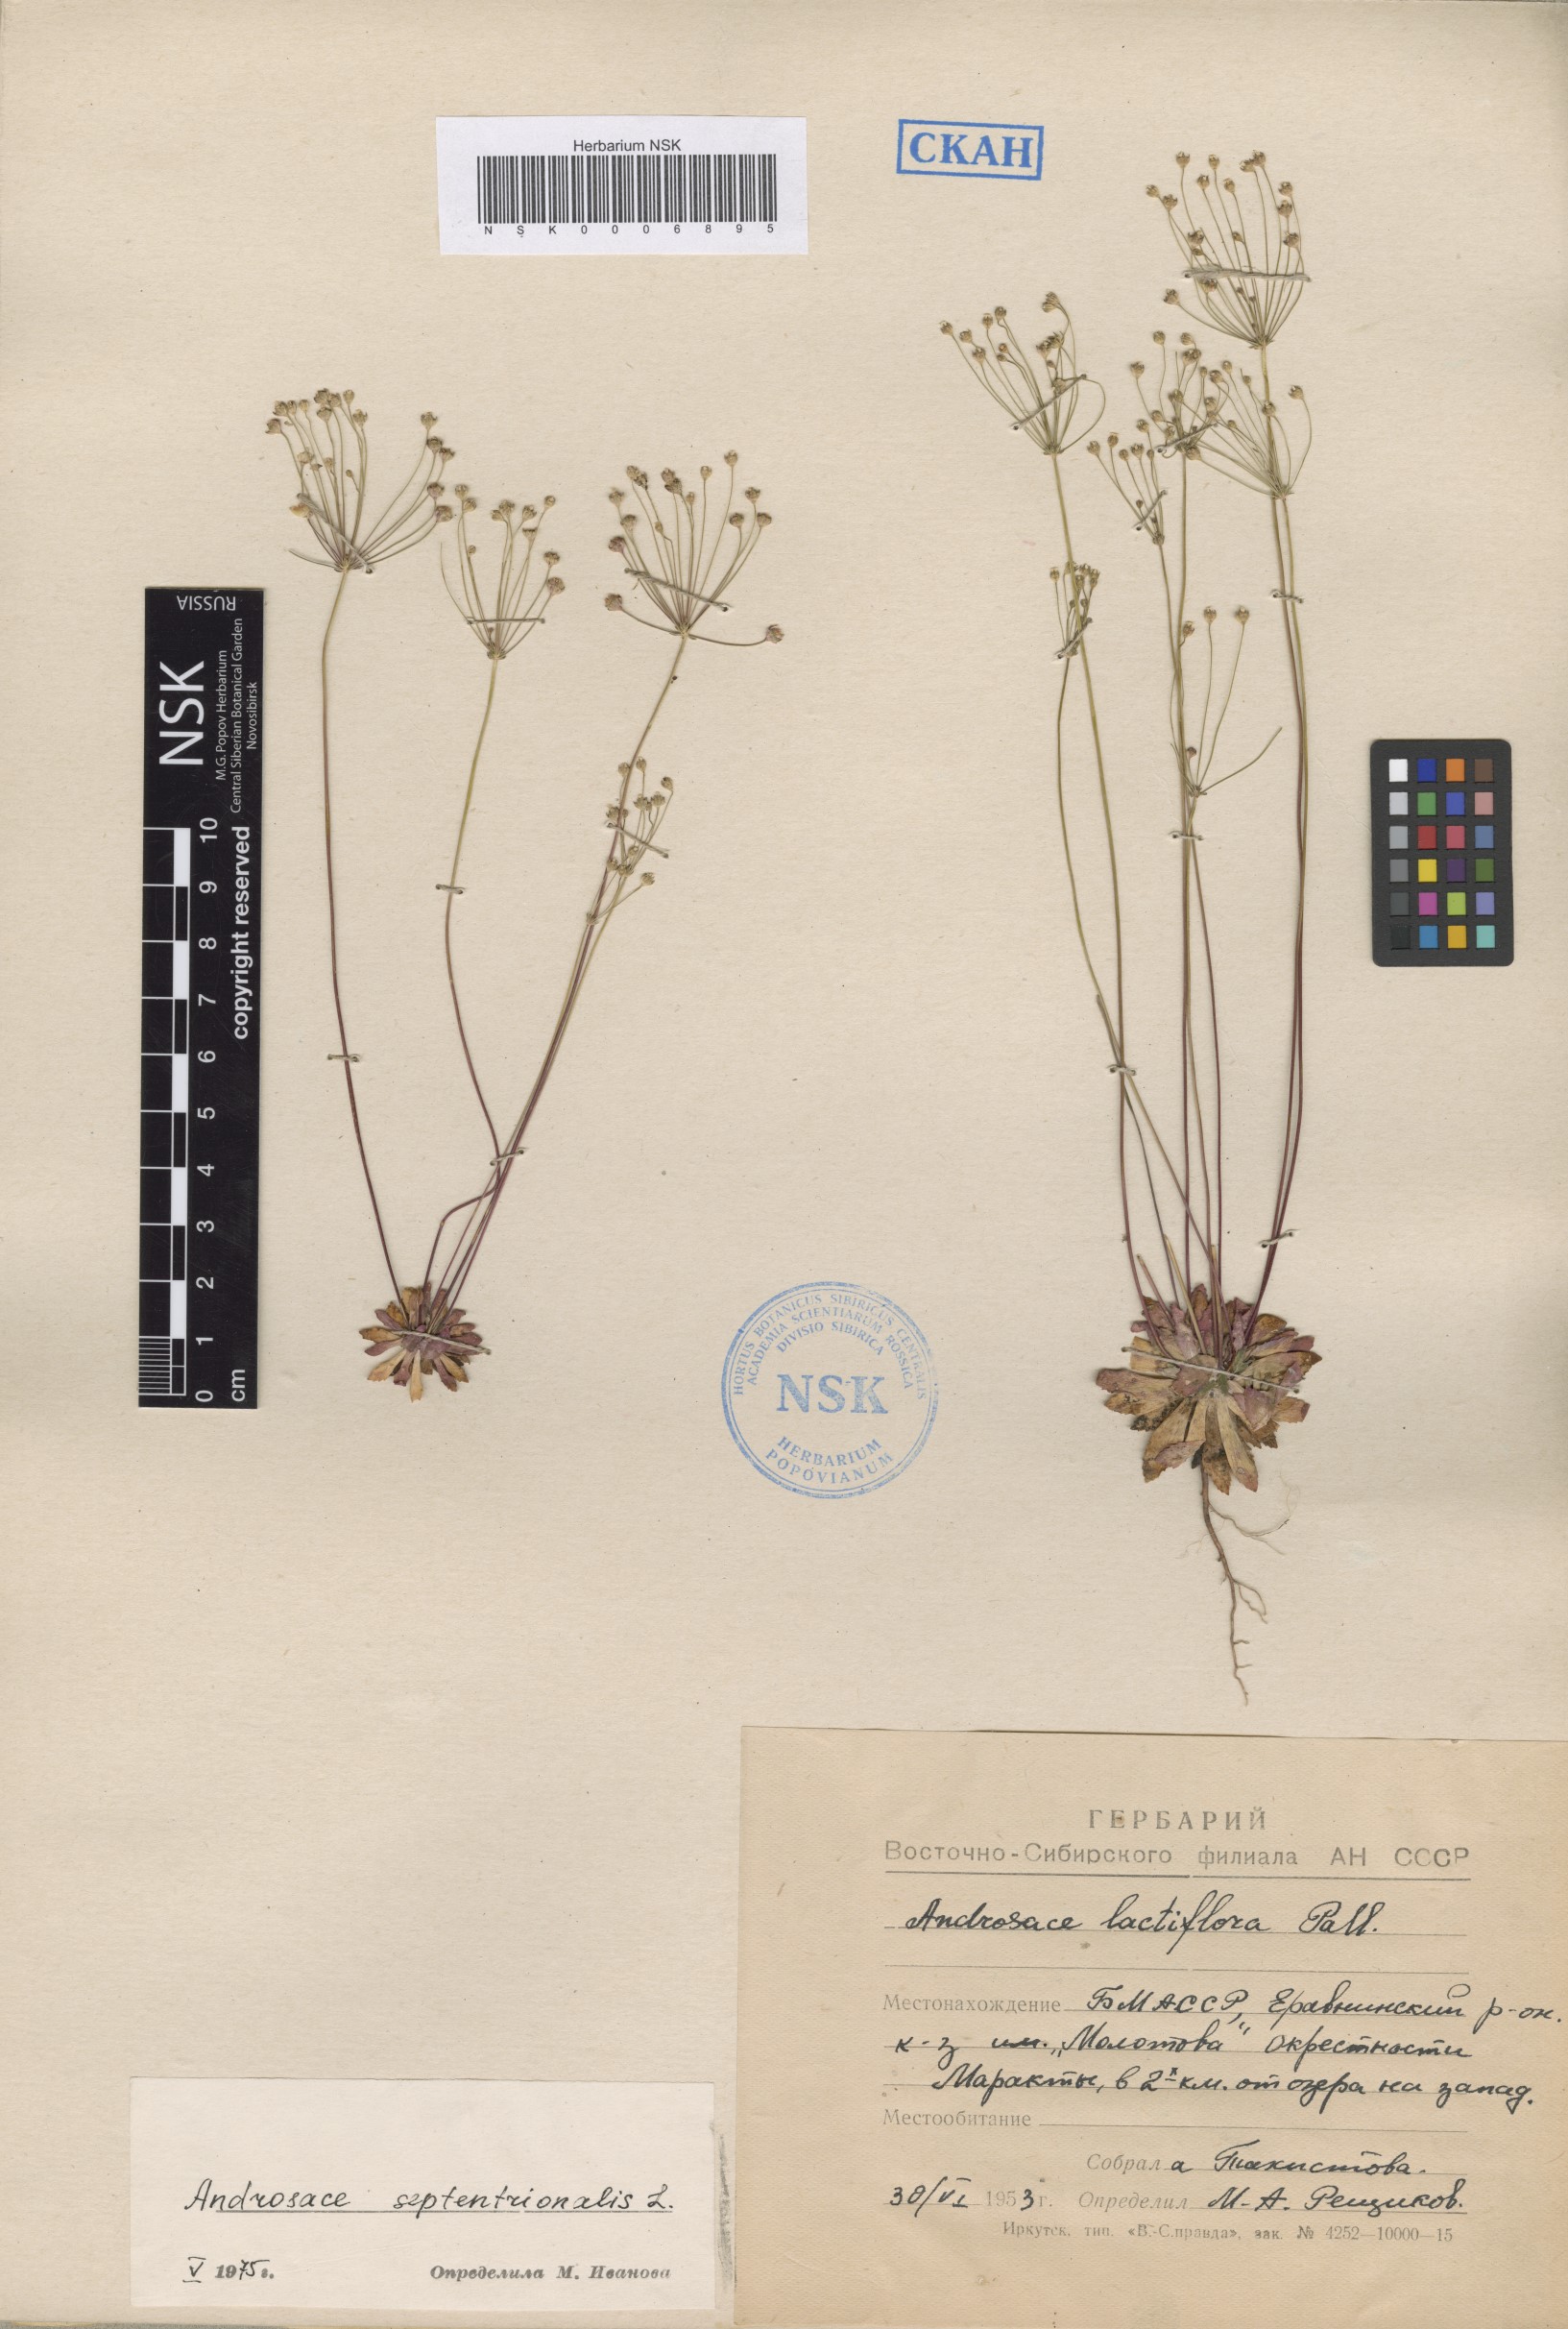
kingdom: Plantae
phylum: Tracheophyta
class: Magnoliopsida
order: Ericales
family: Primulaceae
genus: Androsace
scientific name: Androsace septentrionalis
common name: Hairy northern fairy-candelabra
